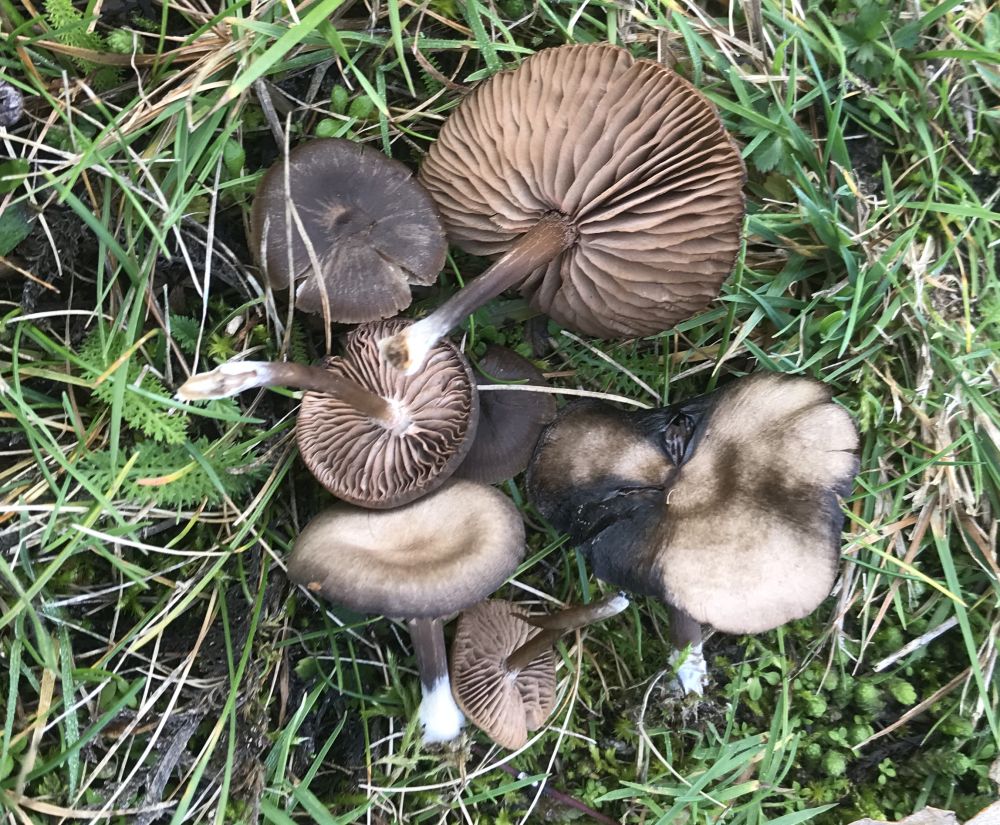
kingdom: Fungi
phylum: Basidiomycota
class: Agaricomycetes
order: Agaricales
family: Entolomataceae
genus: Entoloma
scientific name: Entoloma
